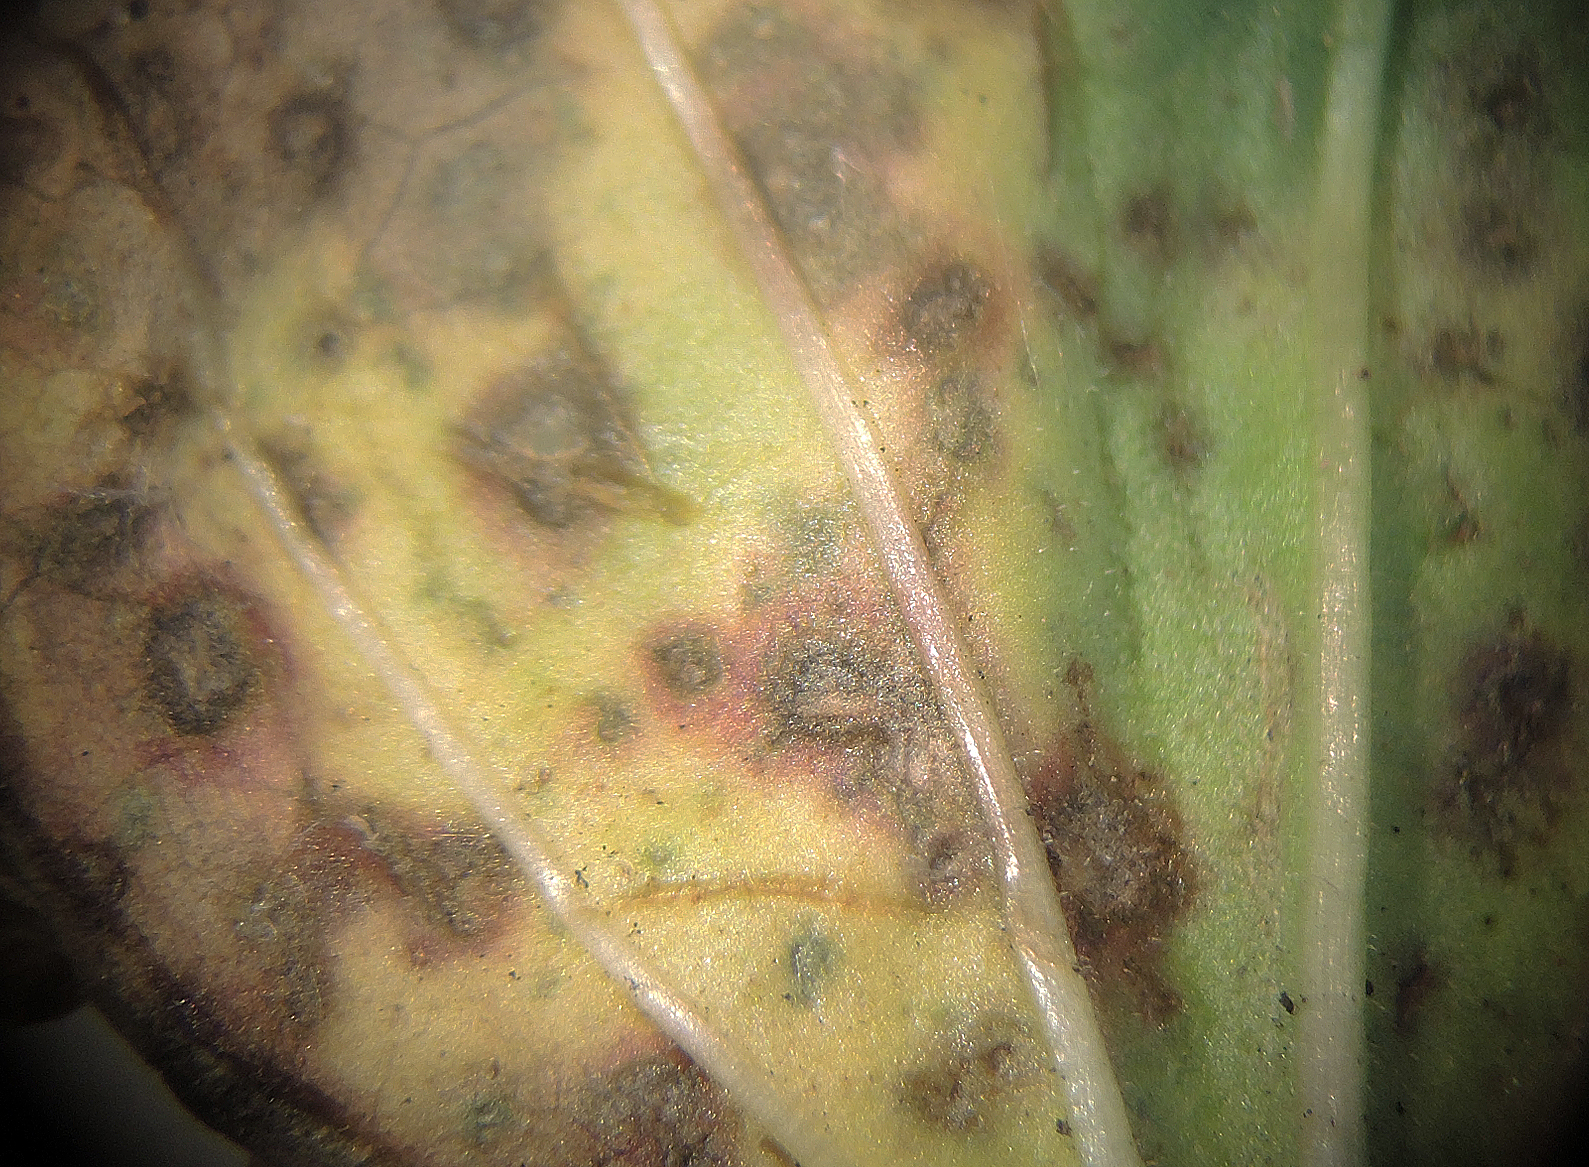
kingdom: Fungi
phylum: Ascomycota
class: Dothideomycetes
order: Capnodiales
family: Mycosphaerellaceae
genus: Ramularia
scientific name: Ramularia plantaginea
